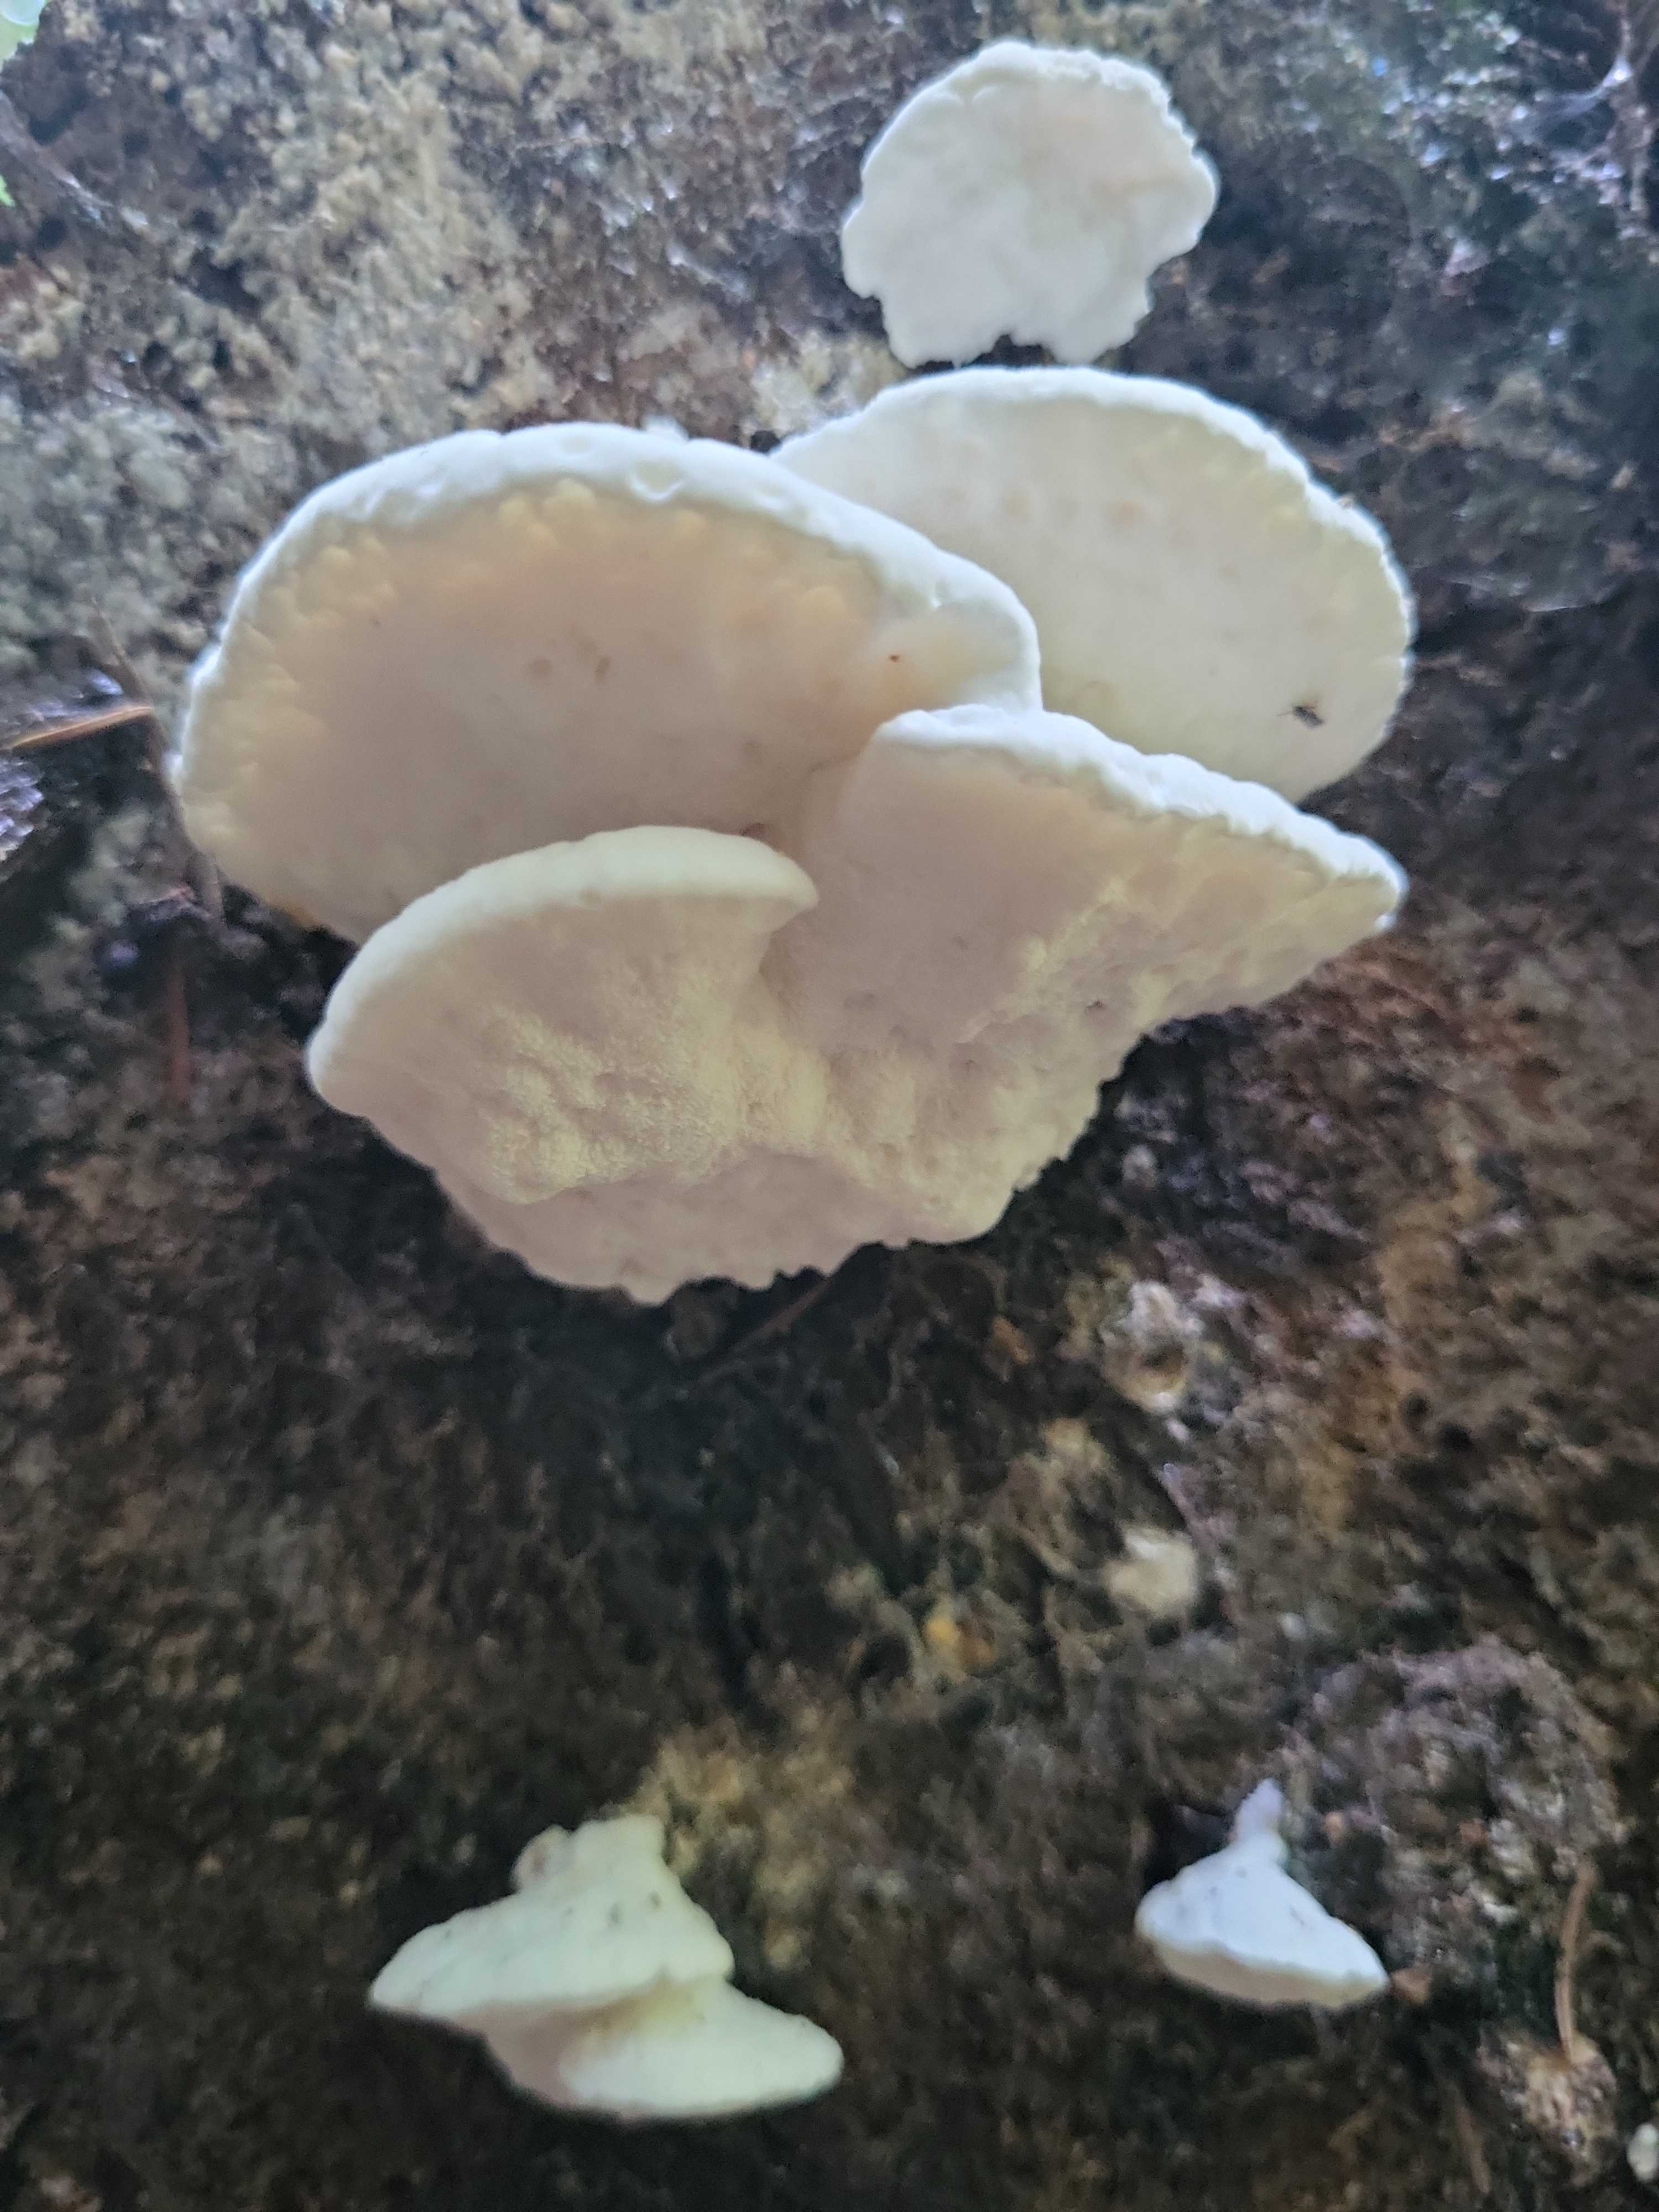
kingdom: Fungi
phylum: Basidiomycota
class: Agaricomycetes
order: Polyporales
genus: Amaropostia
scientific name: Amaropostia stiptica
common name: bitter kødporesvamp
